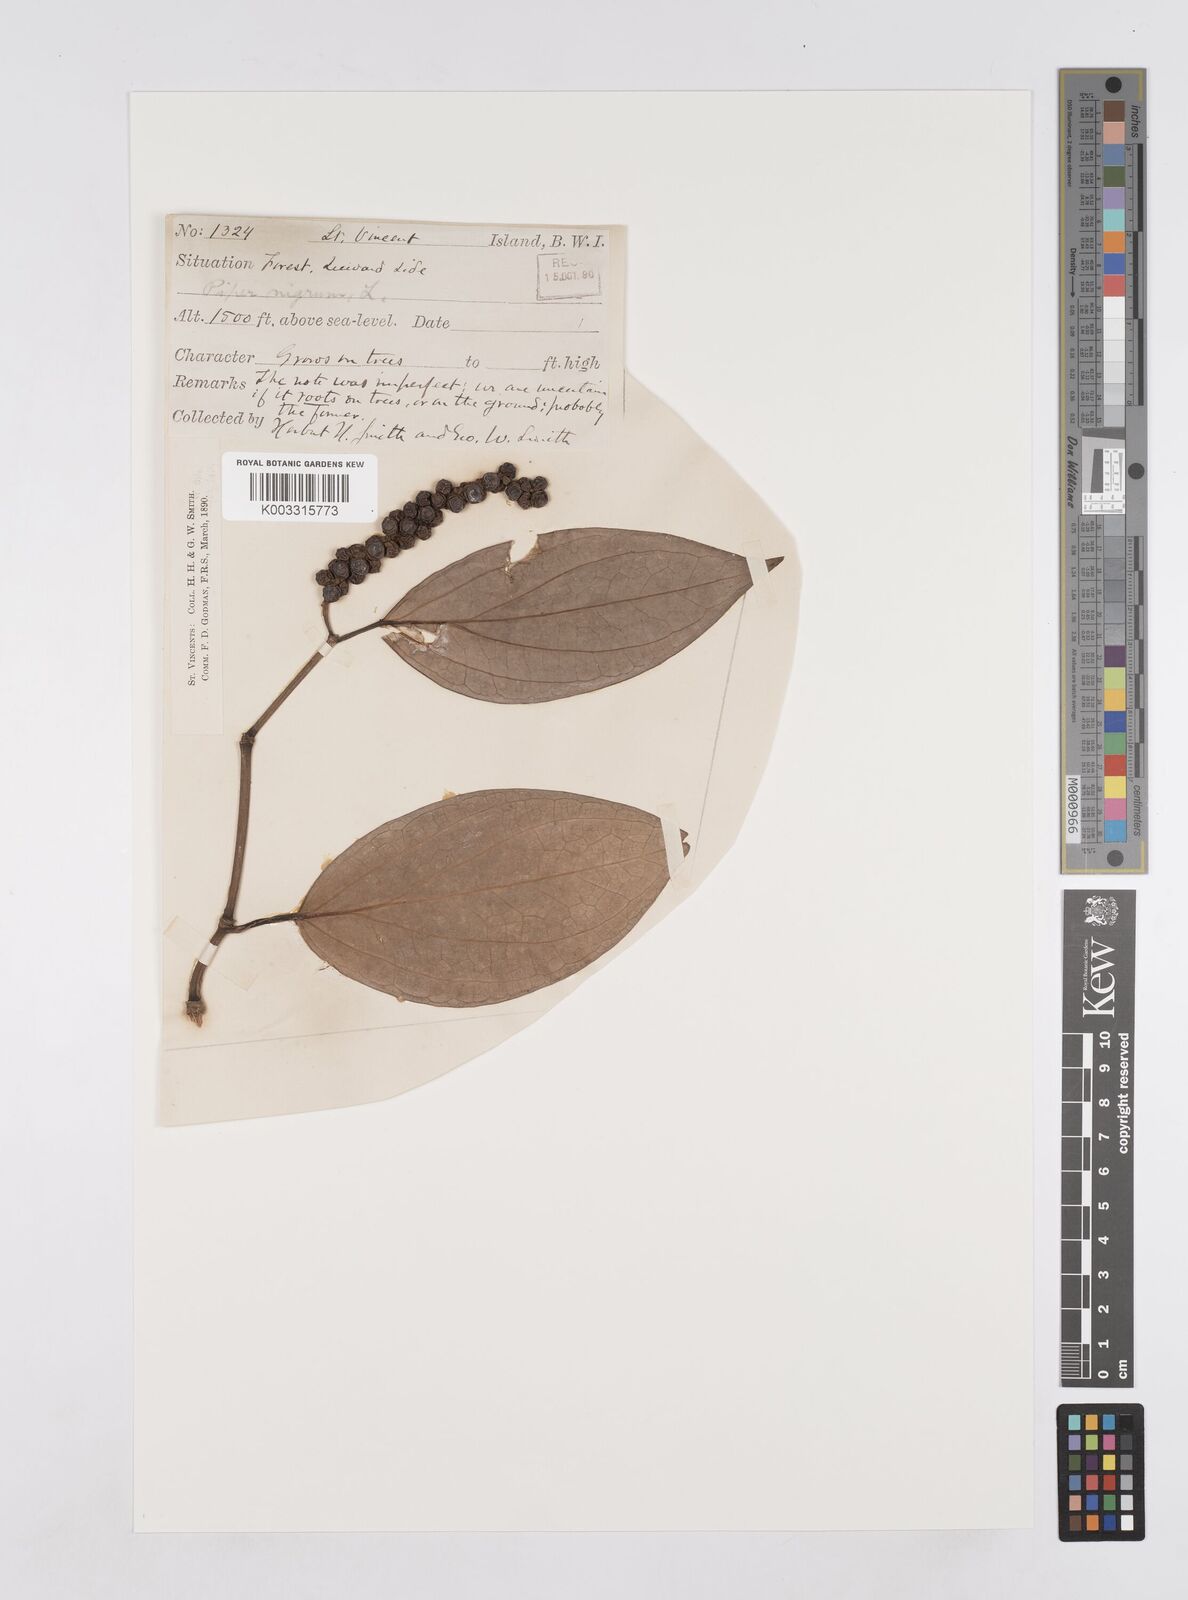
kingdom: Plantae
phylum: Tracheophyta
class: Magnoliopsida
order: Piperales
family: Piperaceae
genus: Piper
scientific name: Piper nigrum
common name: Black pepper
